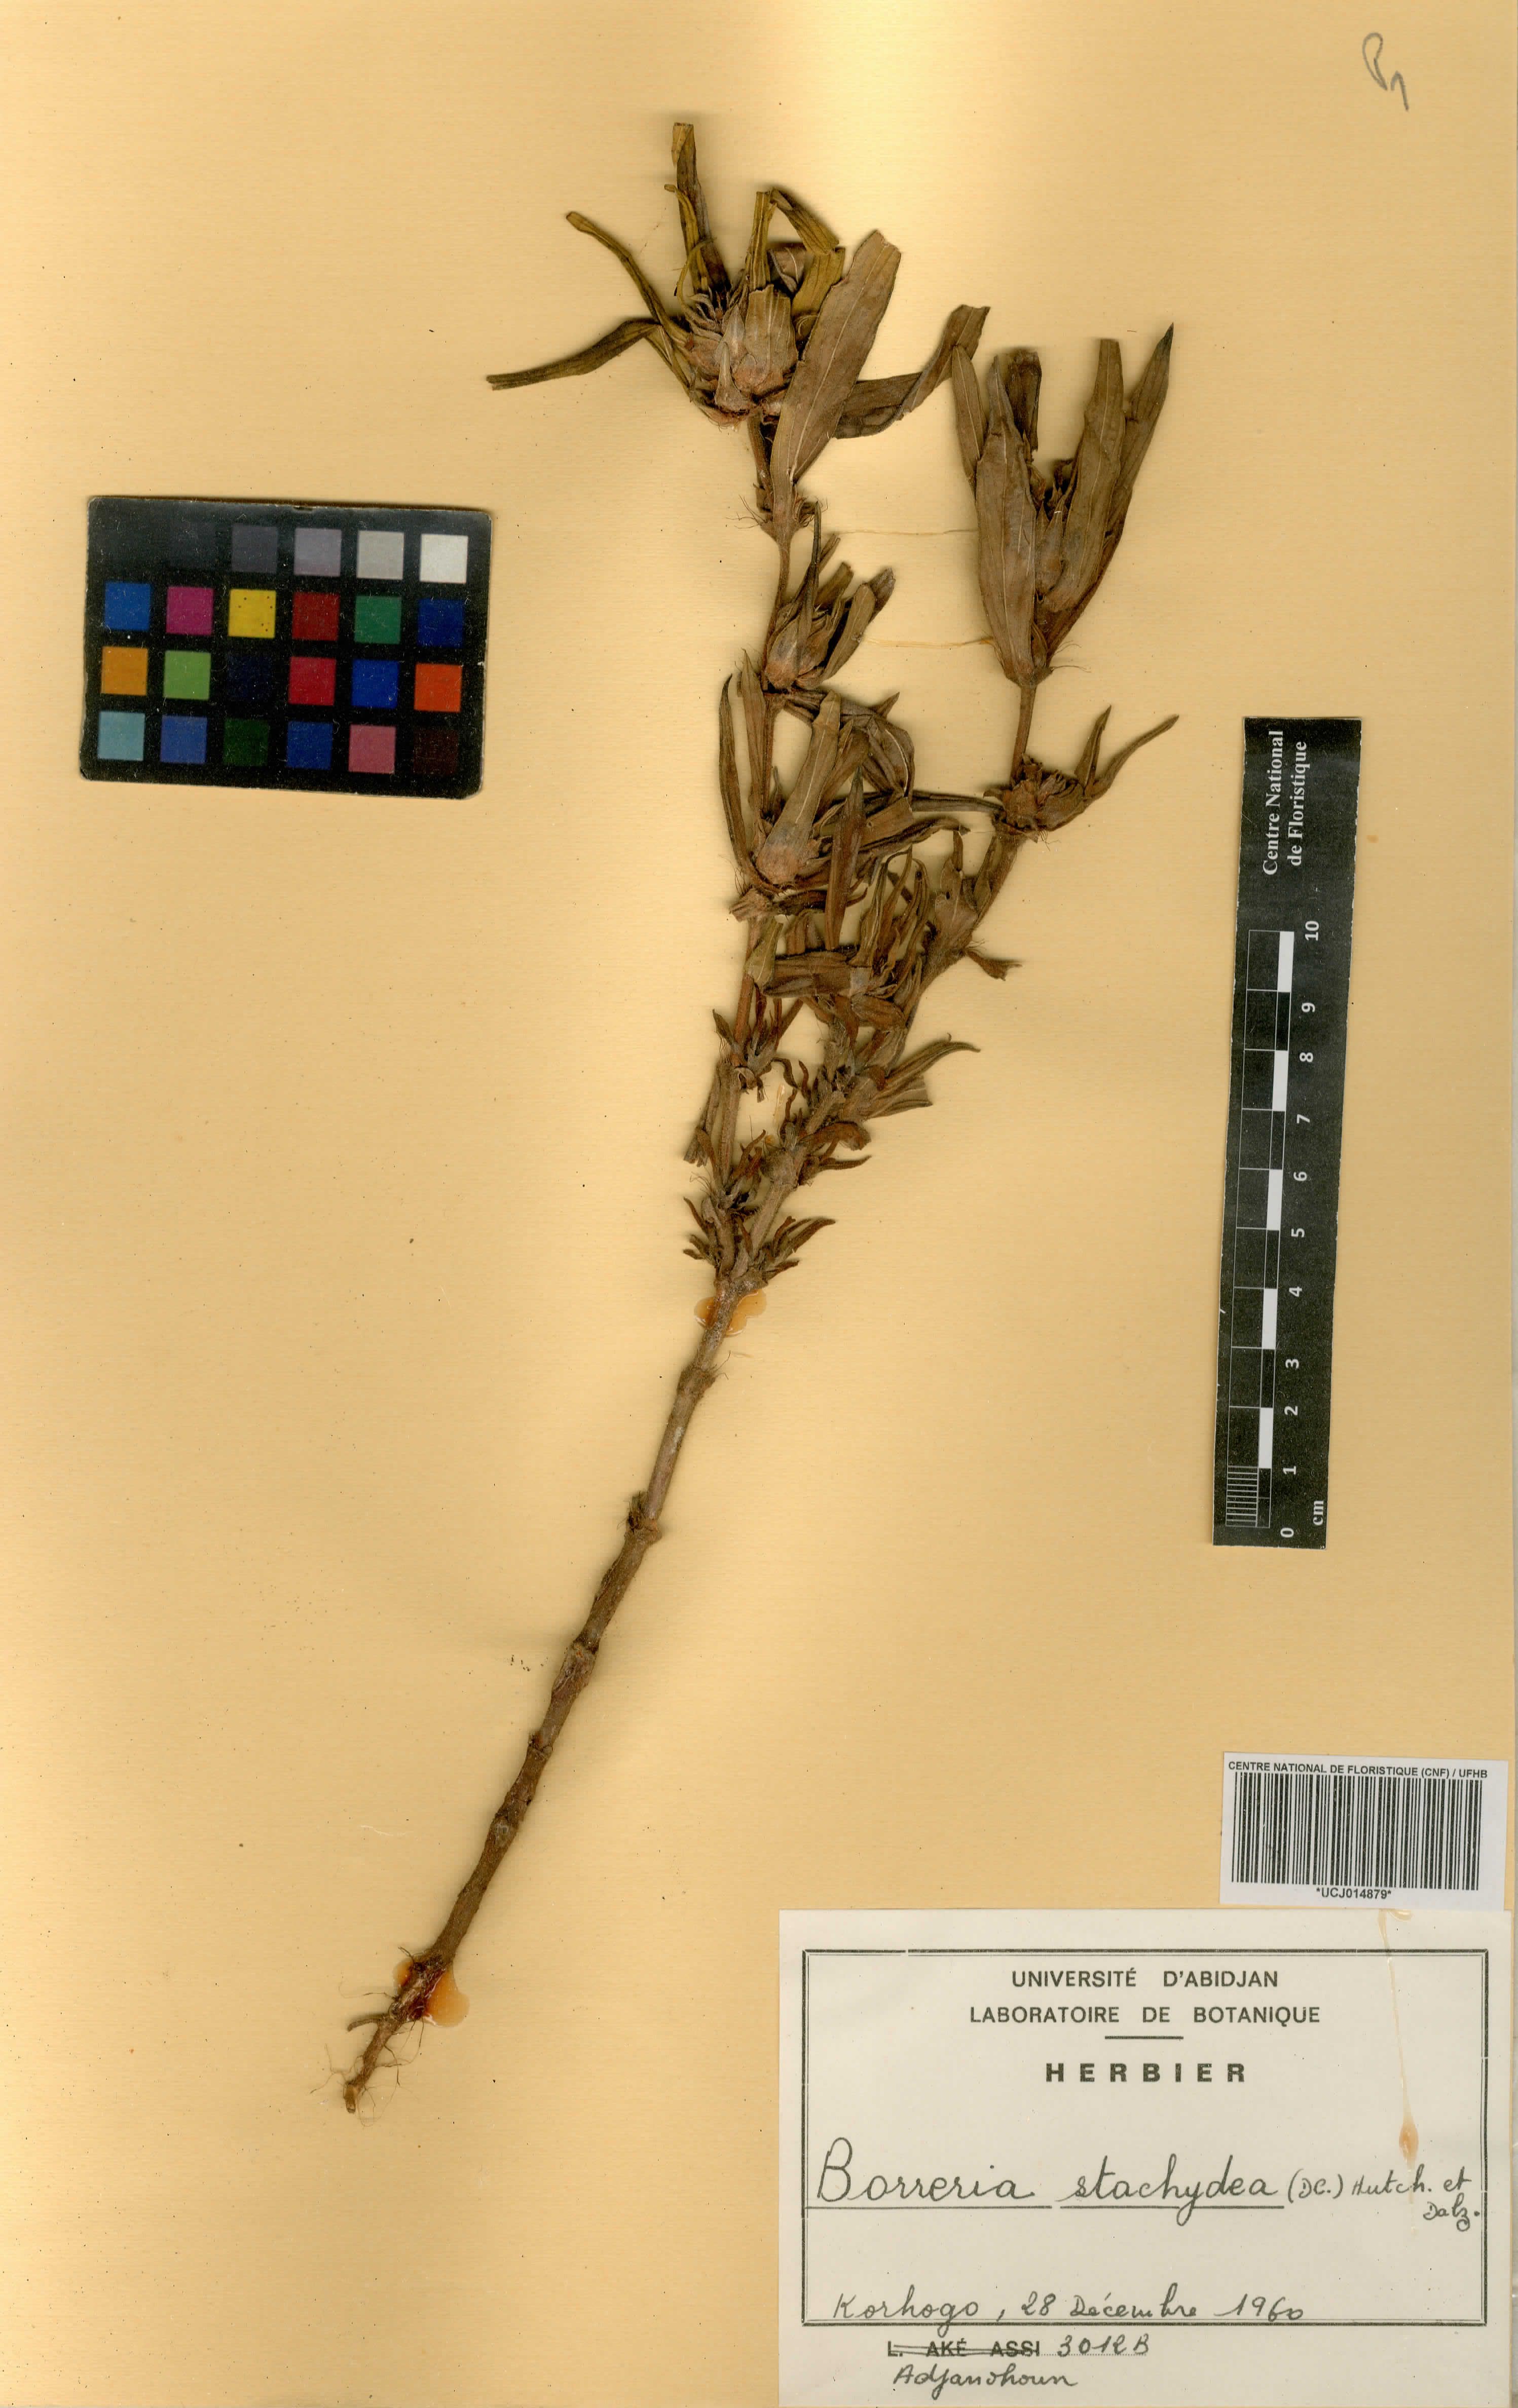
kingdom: Plantae
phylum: Tracheophyta
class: Magnoliopsida
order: Gentianales
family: Rubiaceae
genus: Spermacoce
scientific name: Spermacoce stachydea
